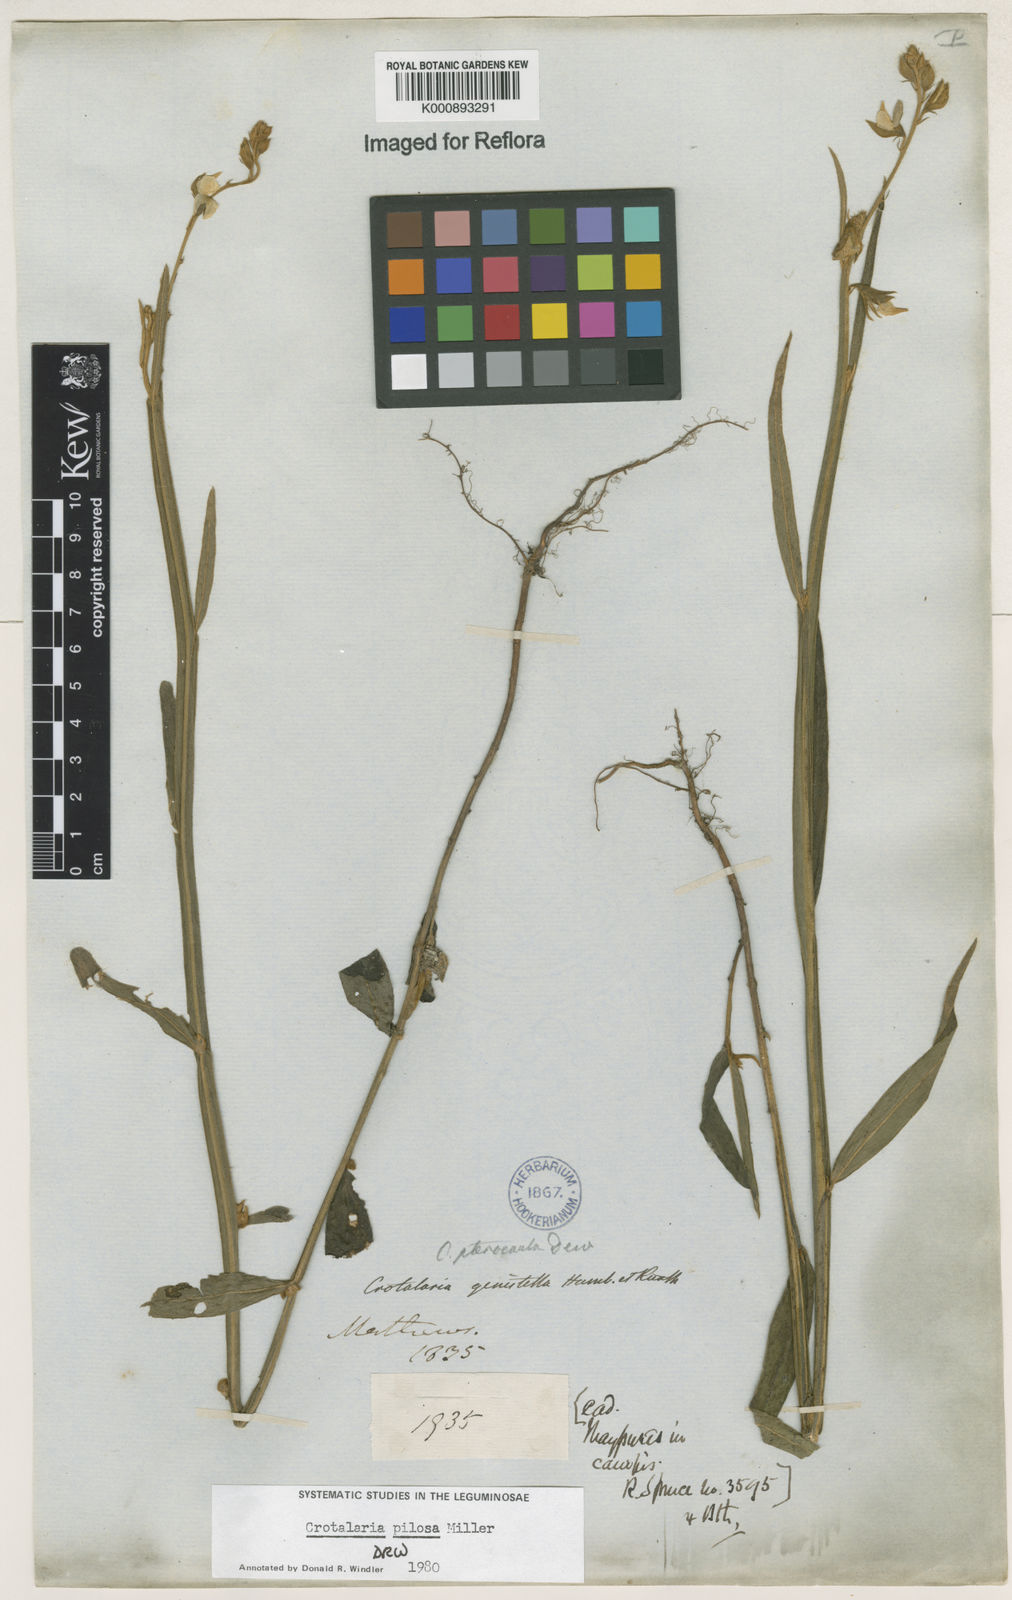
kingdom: Plantae
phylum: Tracheophyta
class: Magnoliopsida
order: Fabales
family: Fabaceae
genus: Crotalaria
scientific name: Crotalaria pilosa
